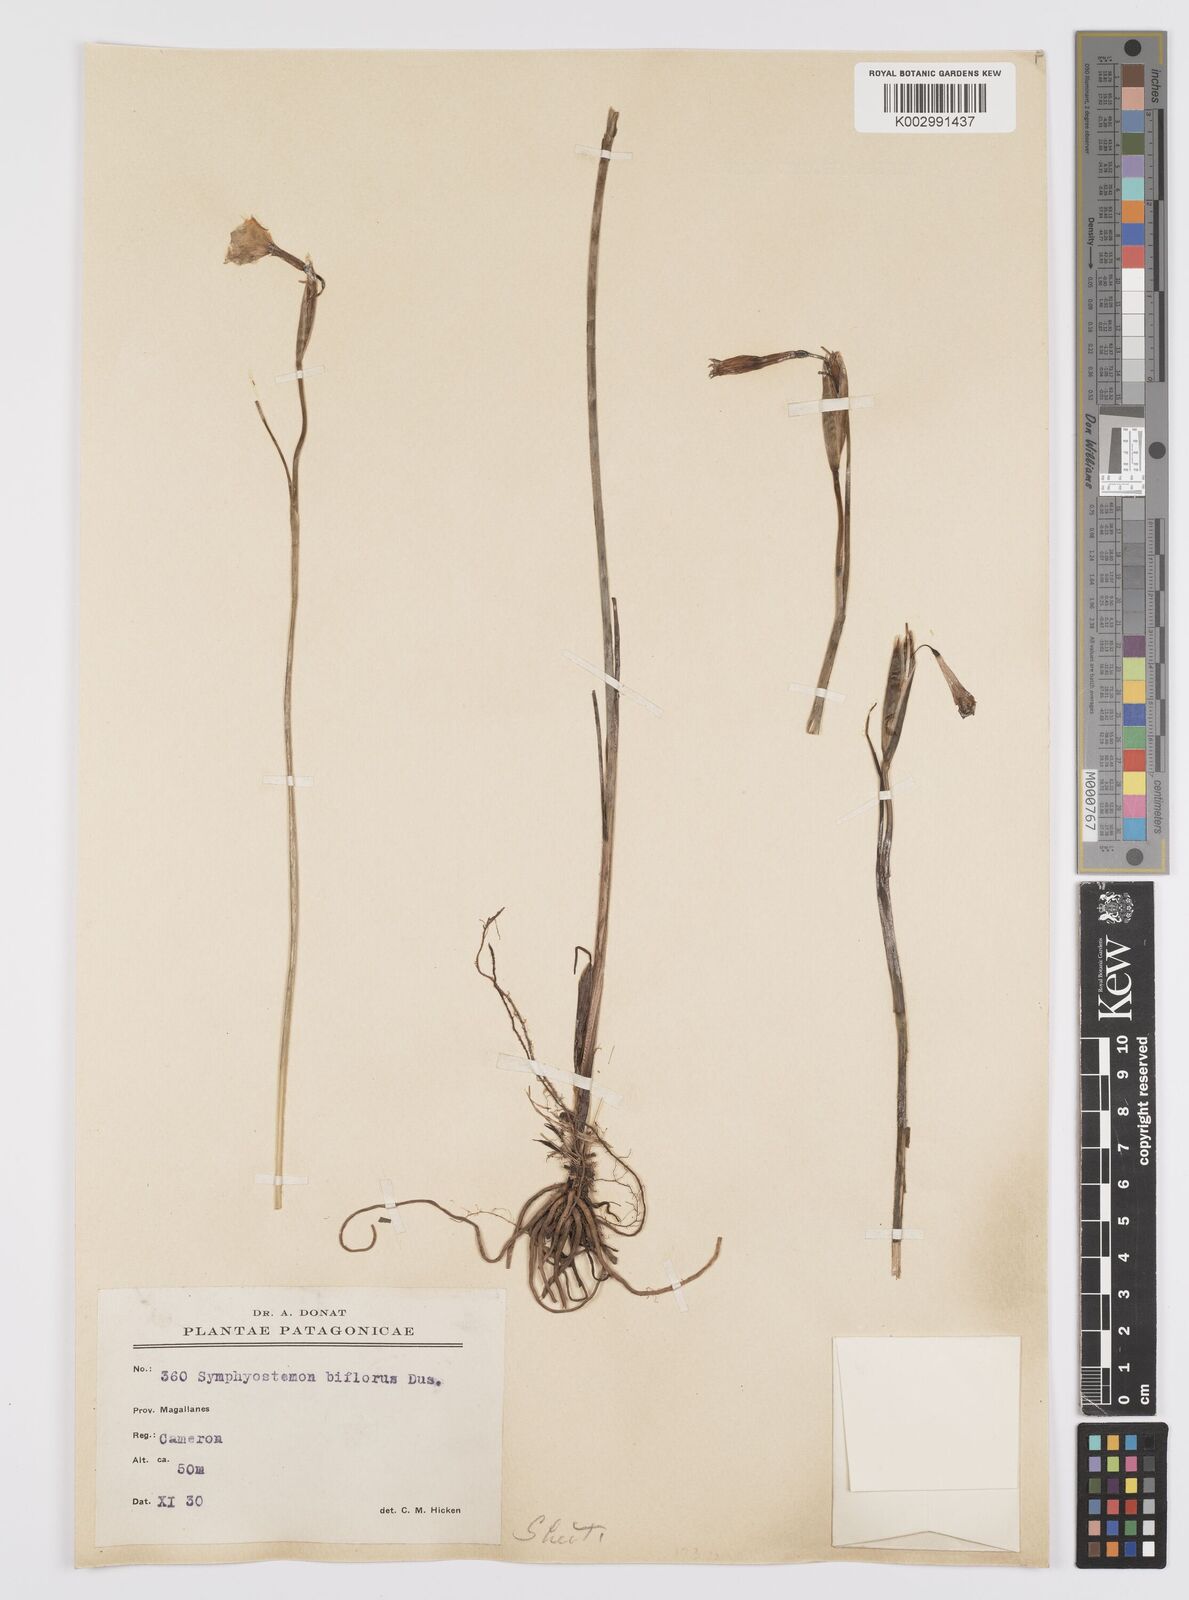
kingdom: Plantae
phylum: Tracheophyta
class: Liliopsida
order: Asparagales
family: Iridaceae
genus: Olsynium
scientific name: Olsynium biflorum
